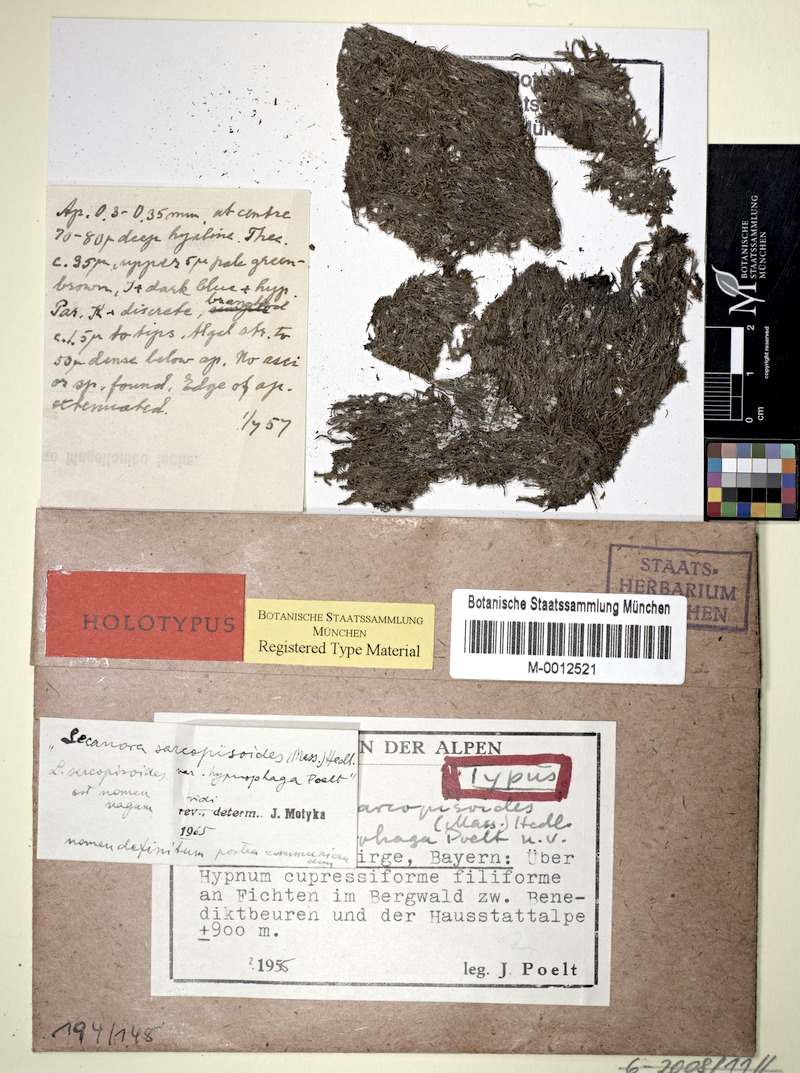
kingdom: Fungi
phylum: Ascomycota
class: Lecanoromycetes
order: Lecanorales
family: Lecanoraceae
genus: Lecanora
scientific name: Lecanora sarcopidoides
